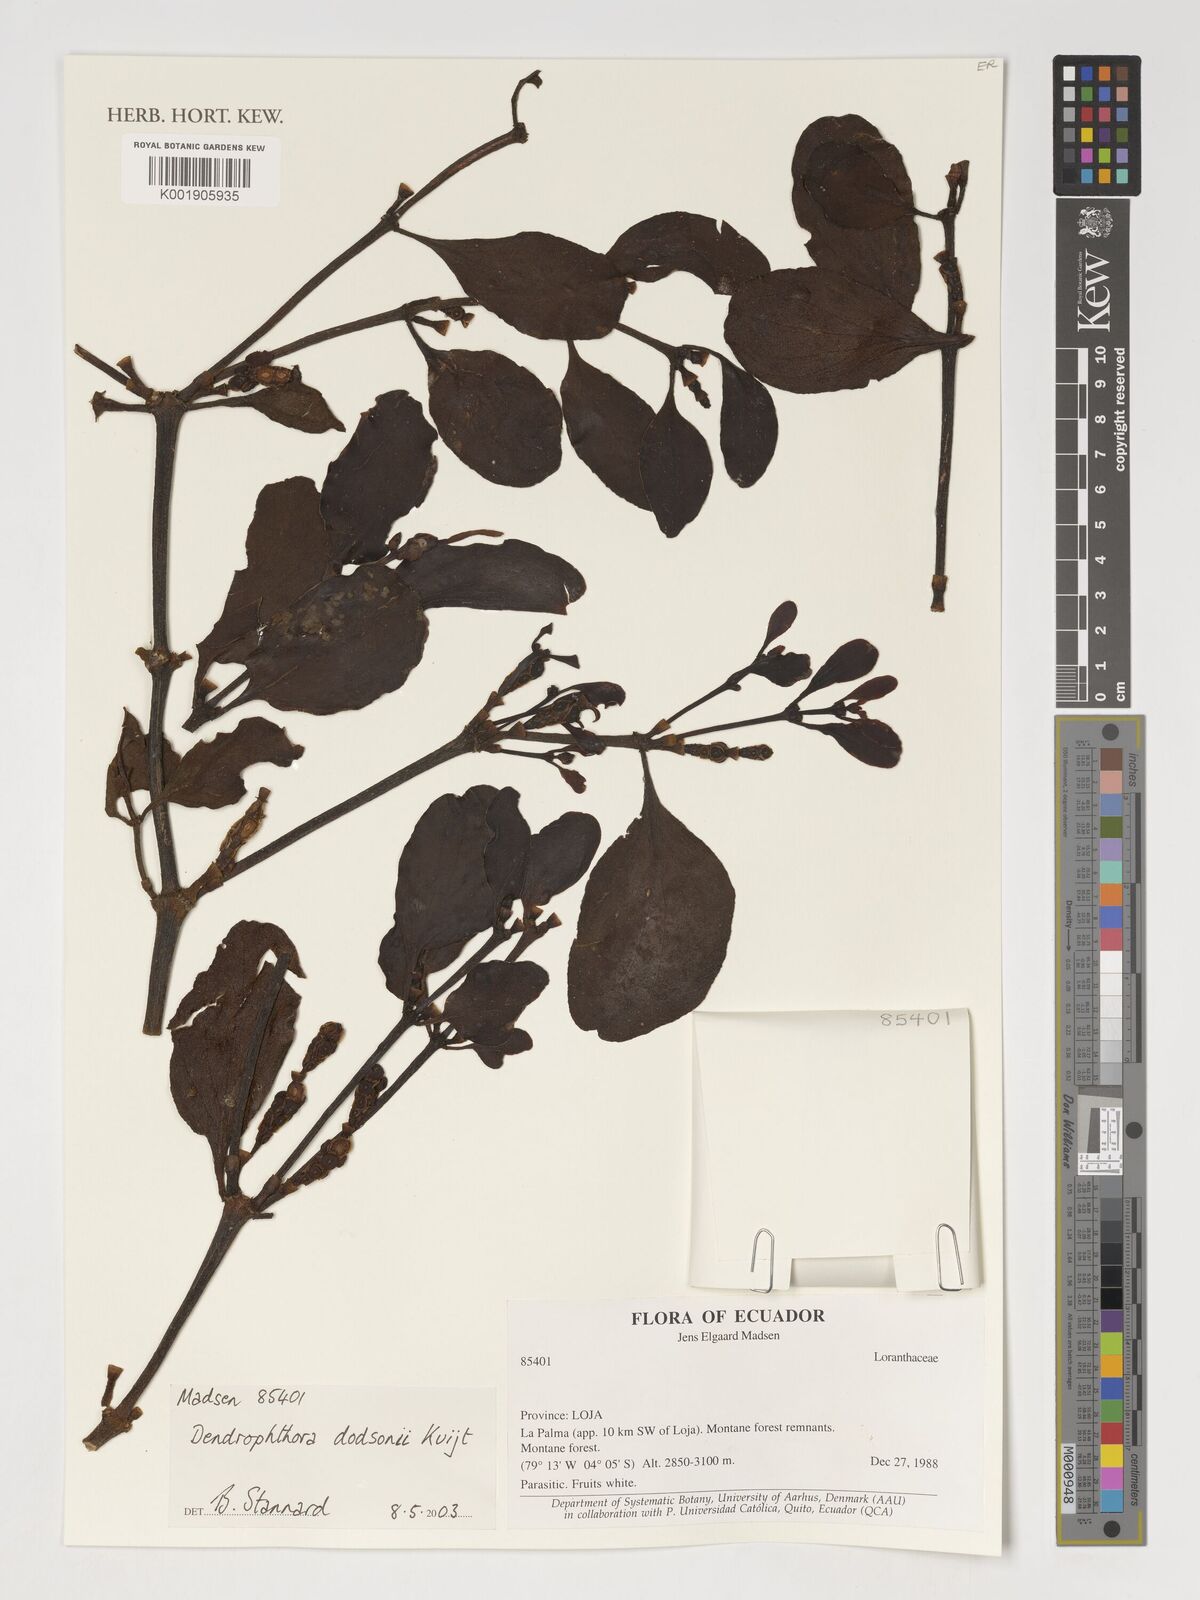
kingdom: Plantae
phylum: Tracheophyta
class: Magnoliopsida
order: Santalales
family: Viscaceae
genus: Dendrophthora
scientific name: Dendrophthora dodsonii
